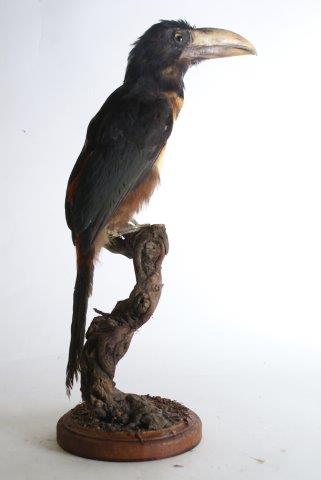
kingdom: Animalia
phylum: Chordata
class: Aves
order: Piciformes
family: Ramphastidae
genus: Pteroglossus
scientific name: Pteroglossus torquatus
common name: Collared aracari
